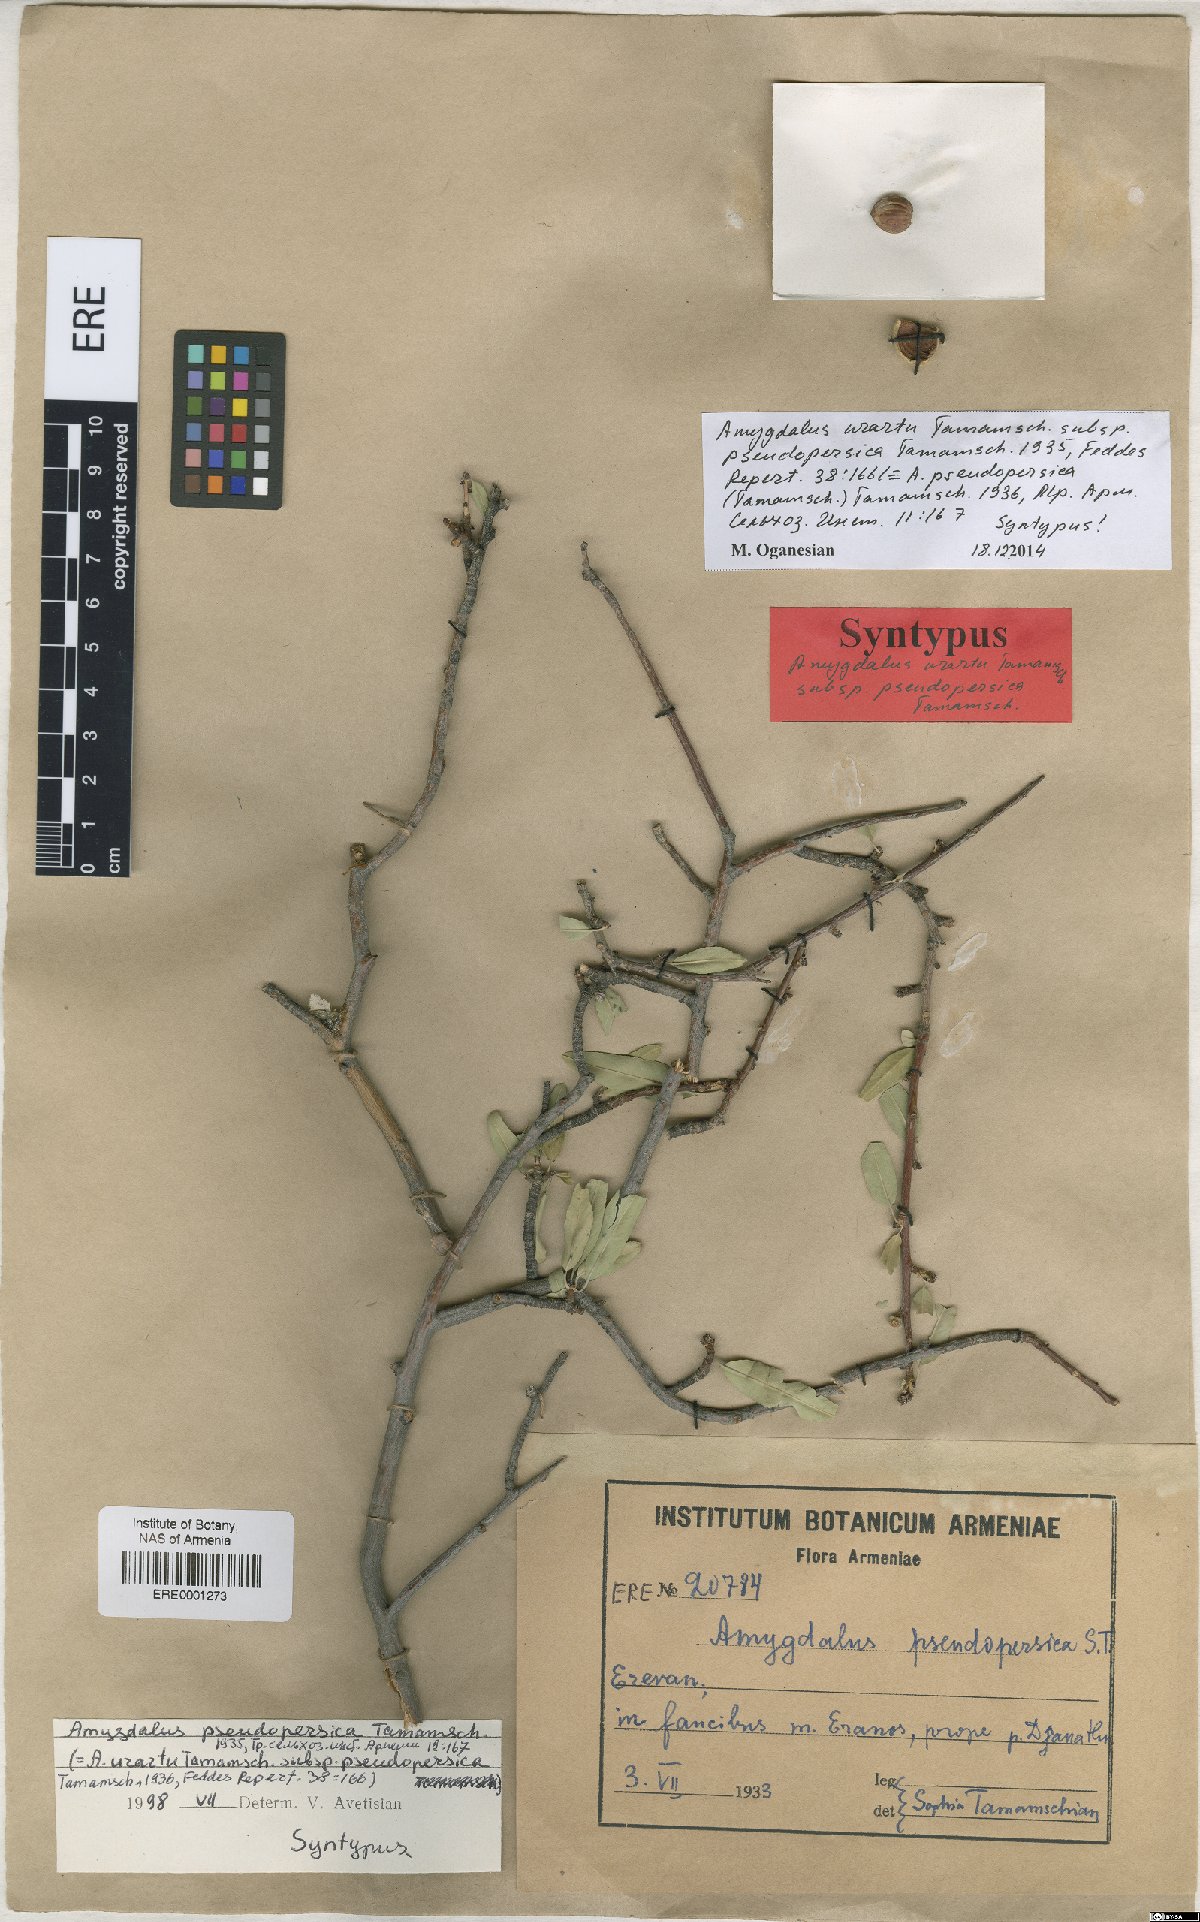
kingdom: Plantae
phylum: Tracheophyta
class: Magnoliopsida
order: Rosales
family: Rosaceae
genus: Prunus
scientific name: Prunus urartu
